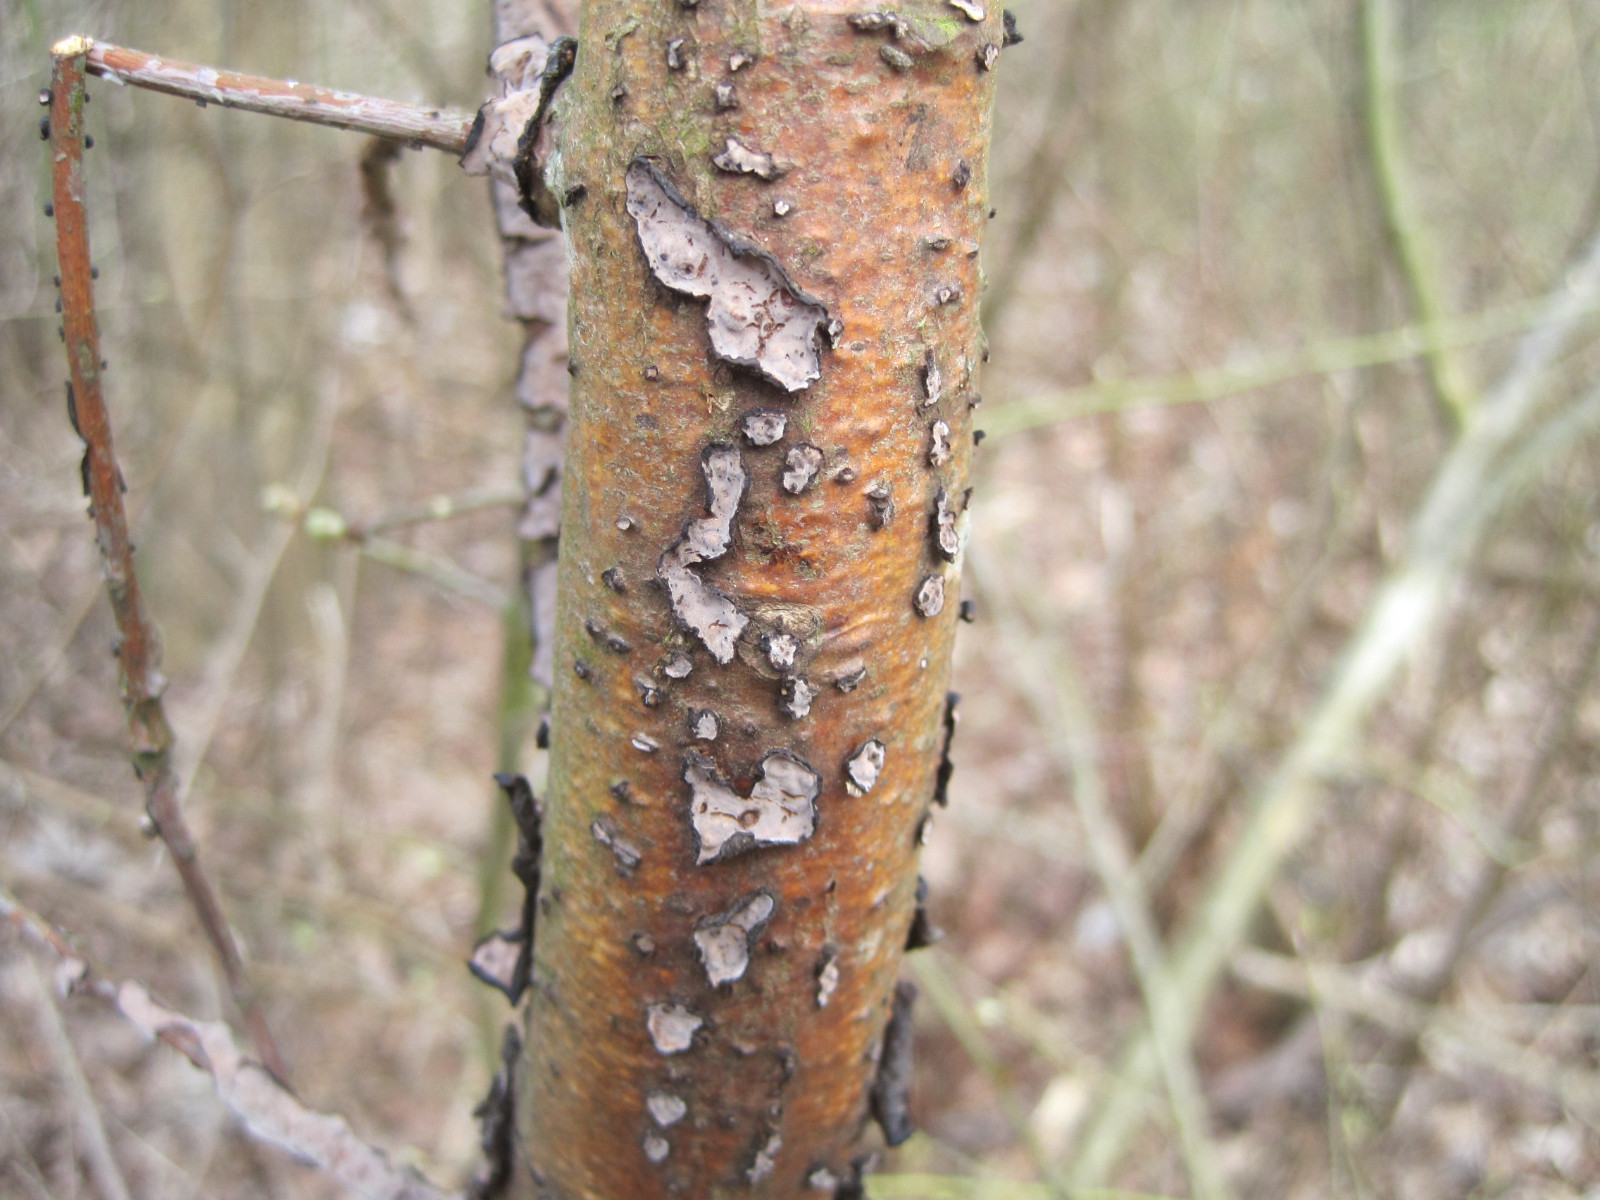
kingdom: Fungi
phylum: Basidiomycota
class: Agaricomycetes
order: Russulales
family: Peniophoraceae
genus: Peniophora
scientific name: Peniophora quercina
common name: ege-voksskind
